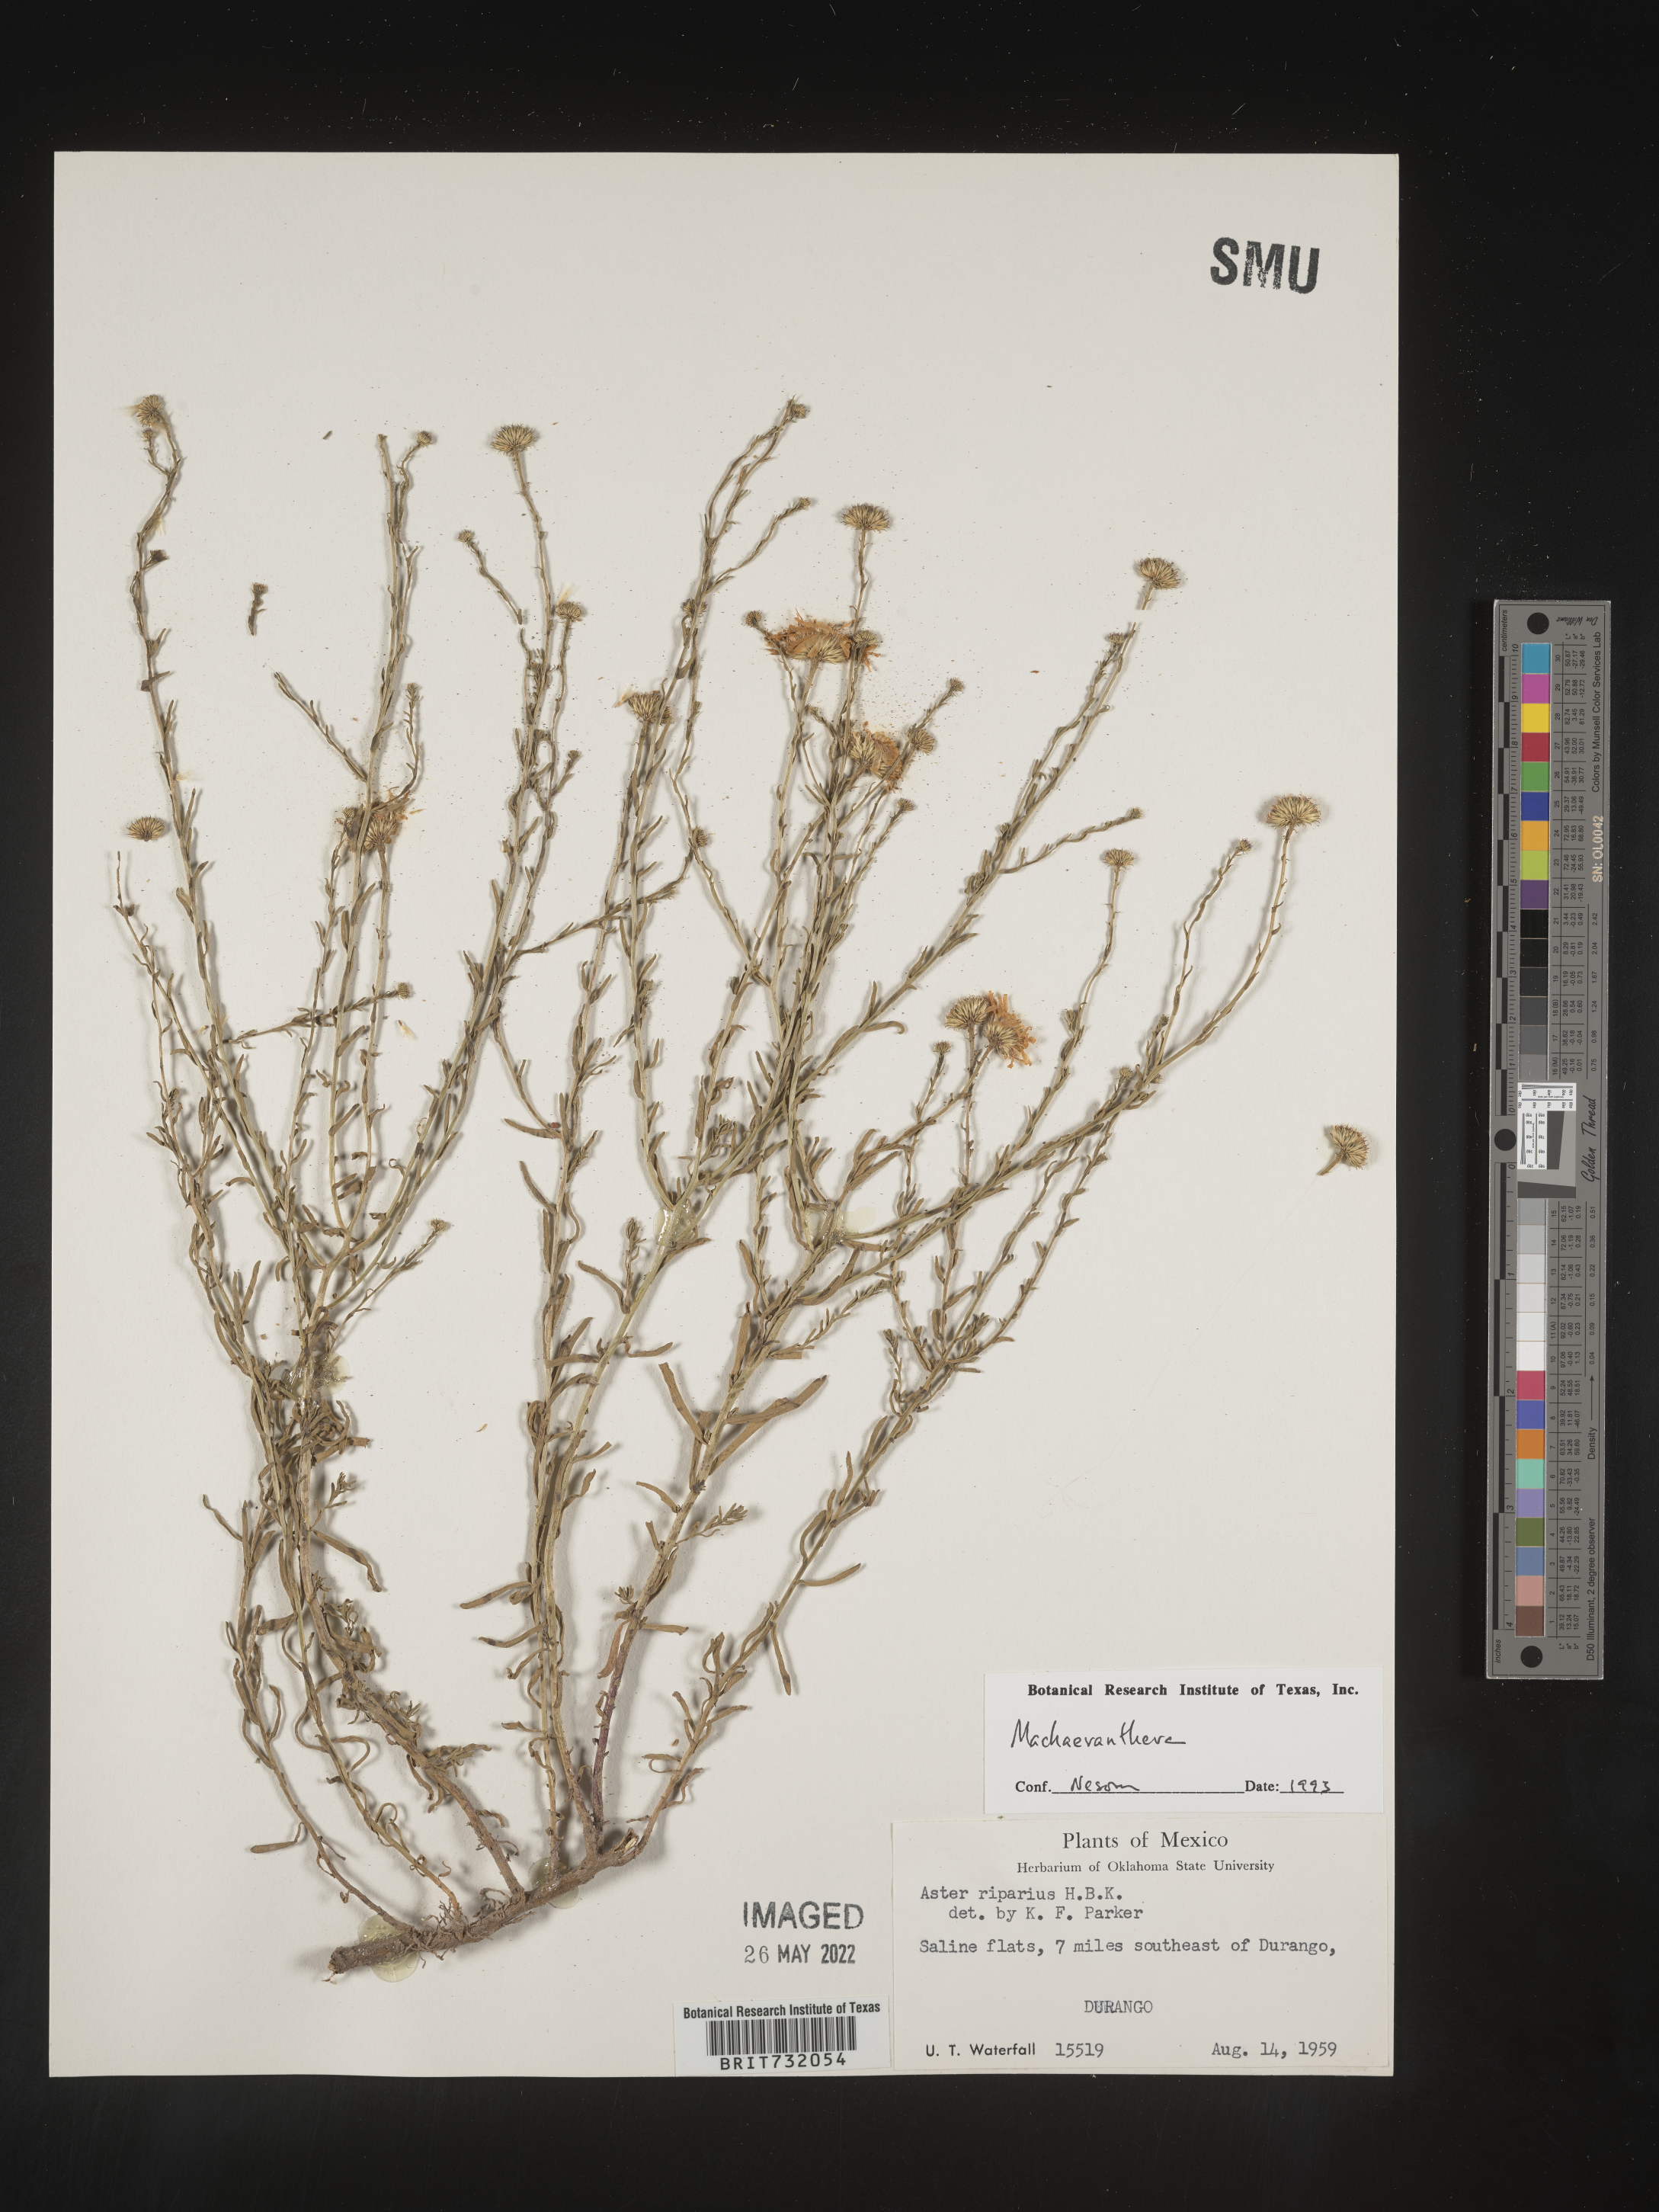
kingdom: Plantae
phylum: Tracheophyta
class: Magnoliopsida
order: Asterales
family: Asteraceae
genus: Machaeranthera
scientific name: Machaeranthera
